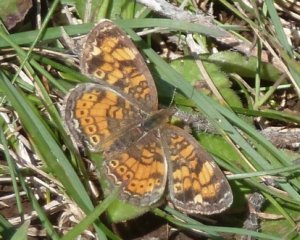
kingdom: Animalia
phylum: Arthropoda
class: Insecta
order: Lepidoptera
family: Nymphalidae
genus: Phyciodes
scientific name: Phyciodes tharos
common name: Northern Crescent
